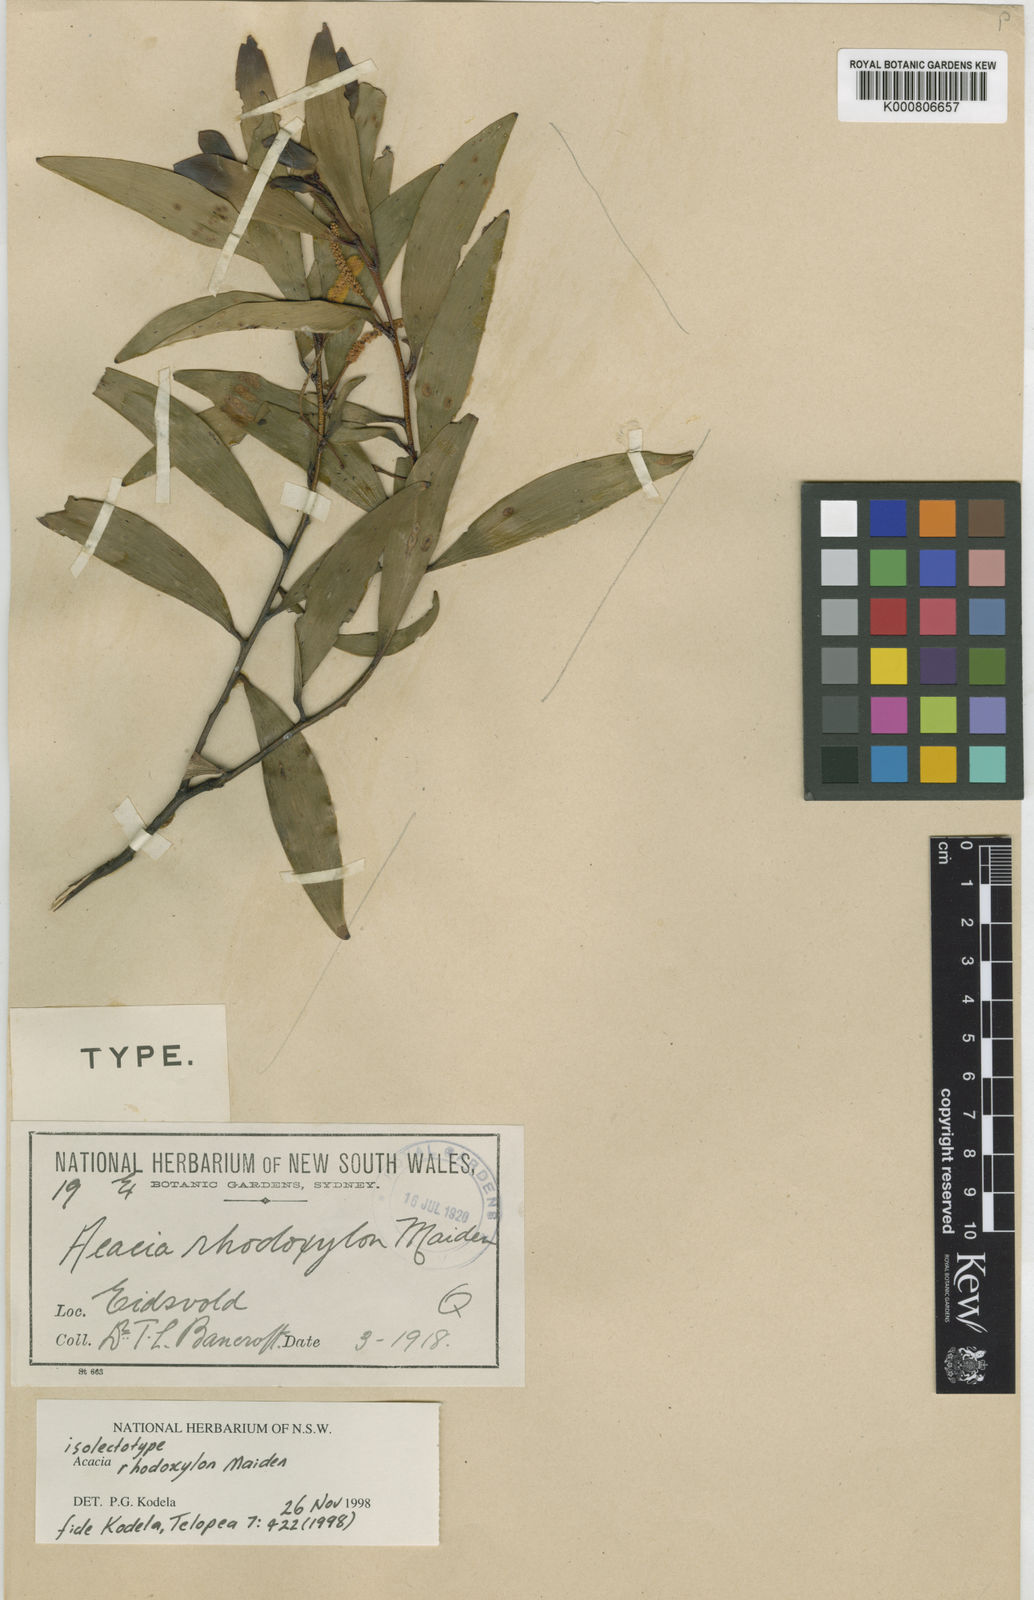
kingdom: Plantae
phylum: Tracheophyta
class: Magnoliopsida
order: Fabales
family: Fabaceae
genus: Acacia
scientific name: Acacia rhodoxylon
